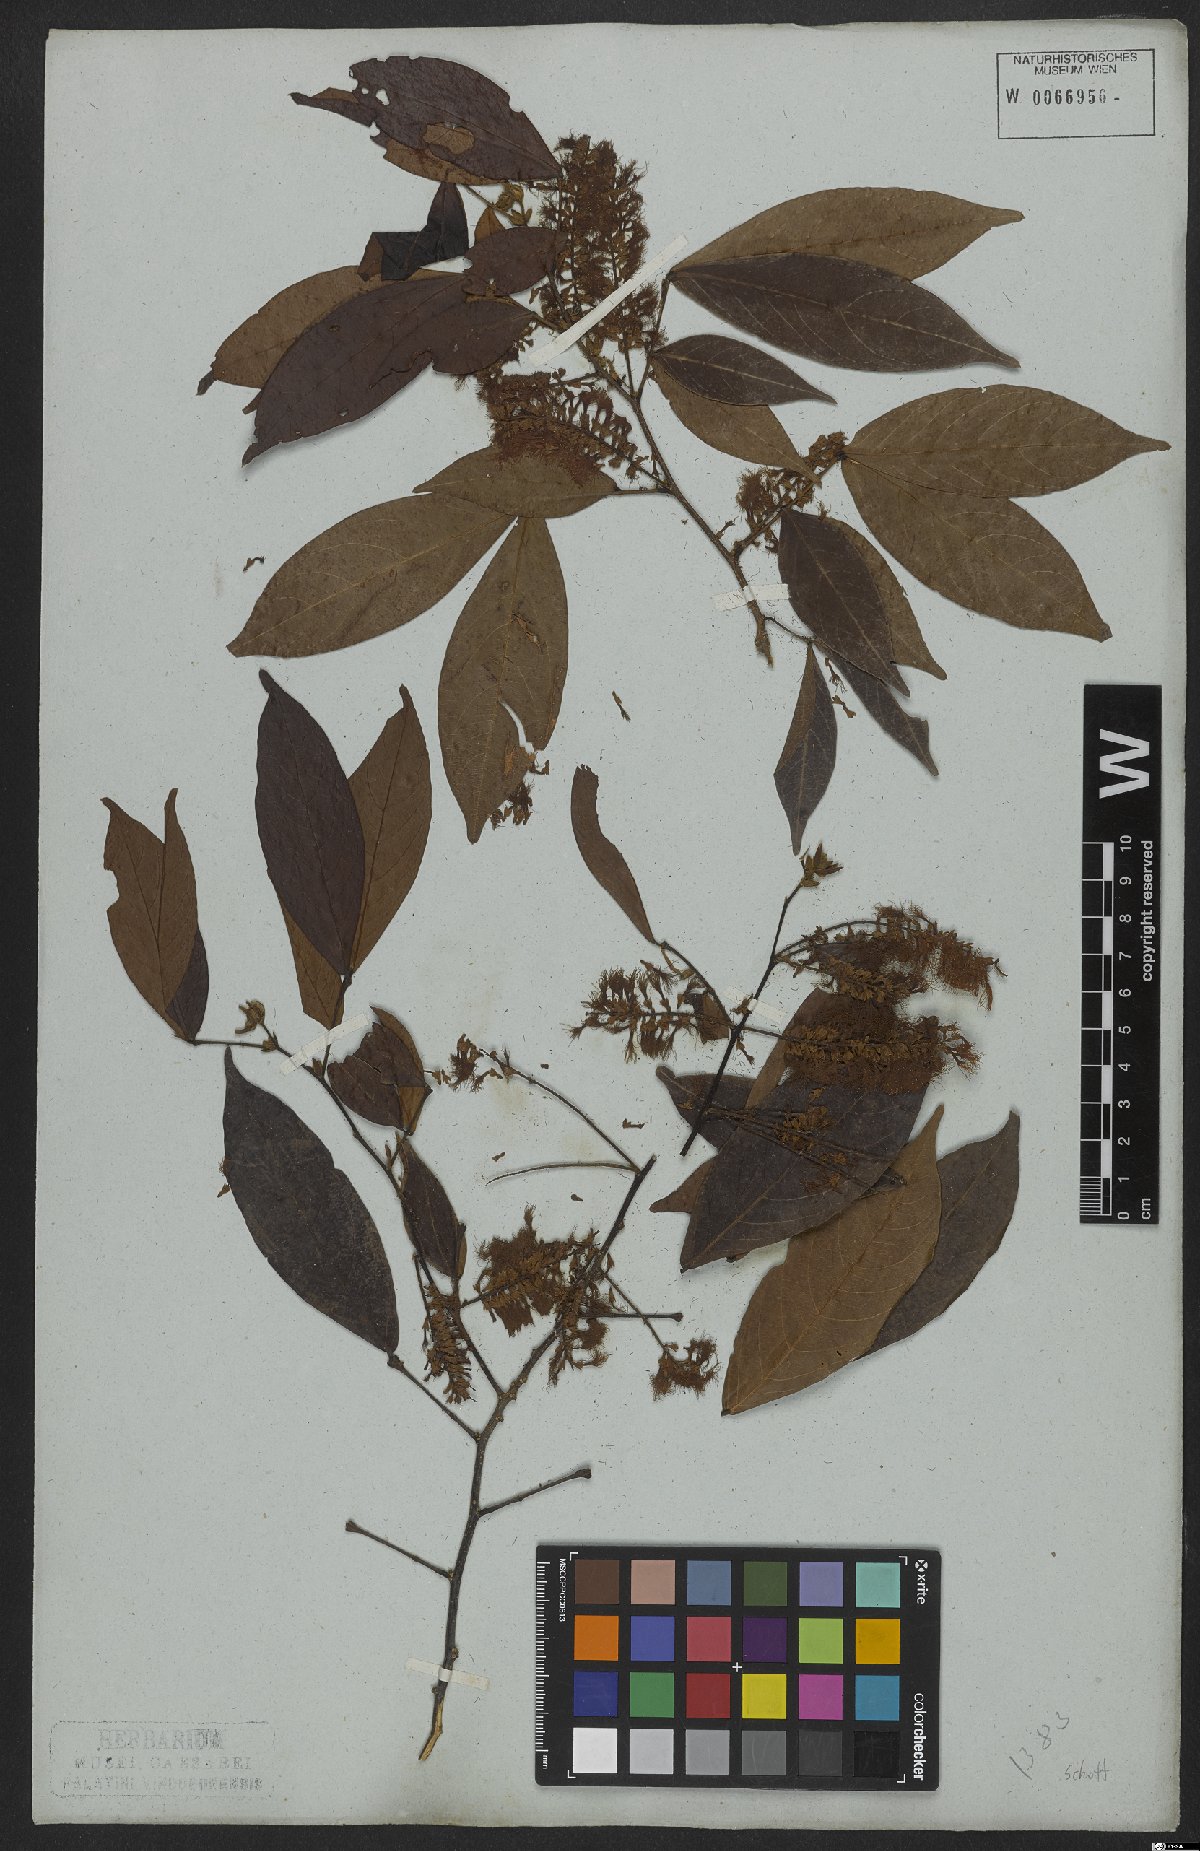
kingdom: Plantae
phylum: Tracheophyta
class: Magnoliopsida
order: Fabales
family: Fabaceae
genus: Mimosa
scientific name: Mimosa
